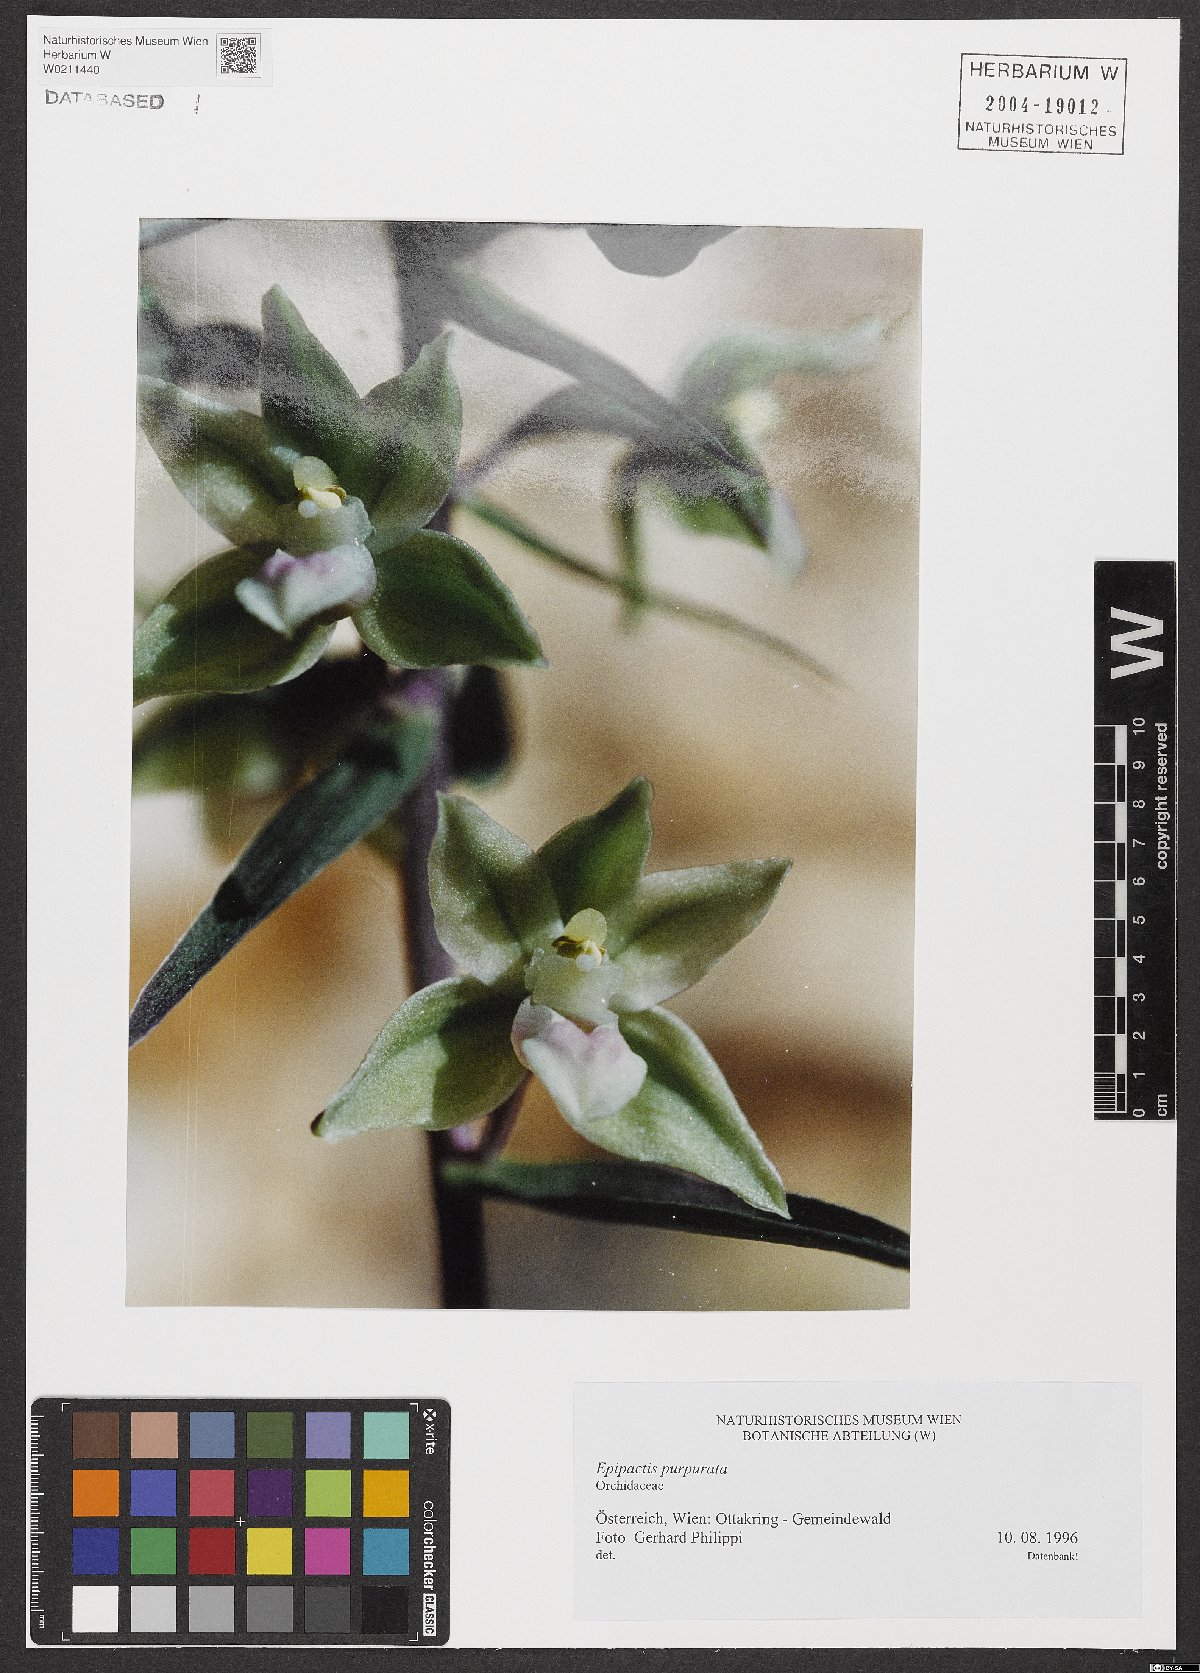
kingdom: Plantae
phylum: Tracheophyta
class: Liliopsida
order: Asparagales
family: Orchidaceae
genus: Epipactis
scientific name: Epipactis purpurata
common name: Violet helleborine
